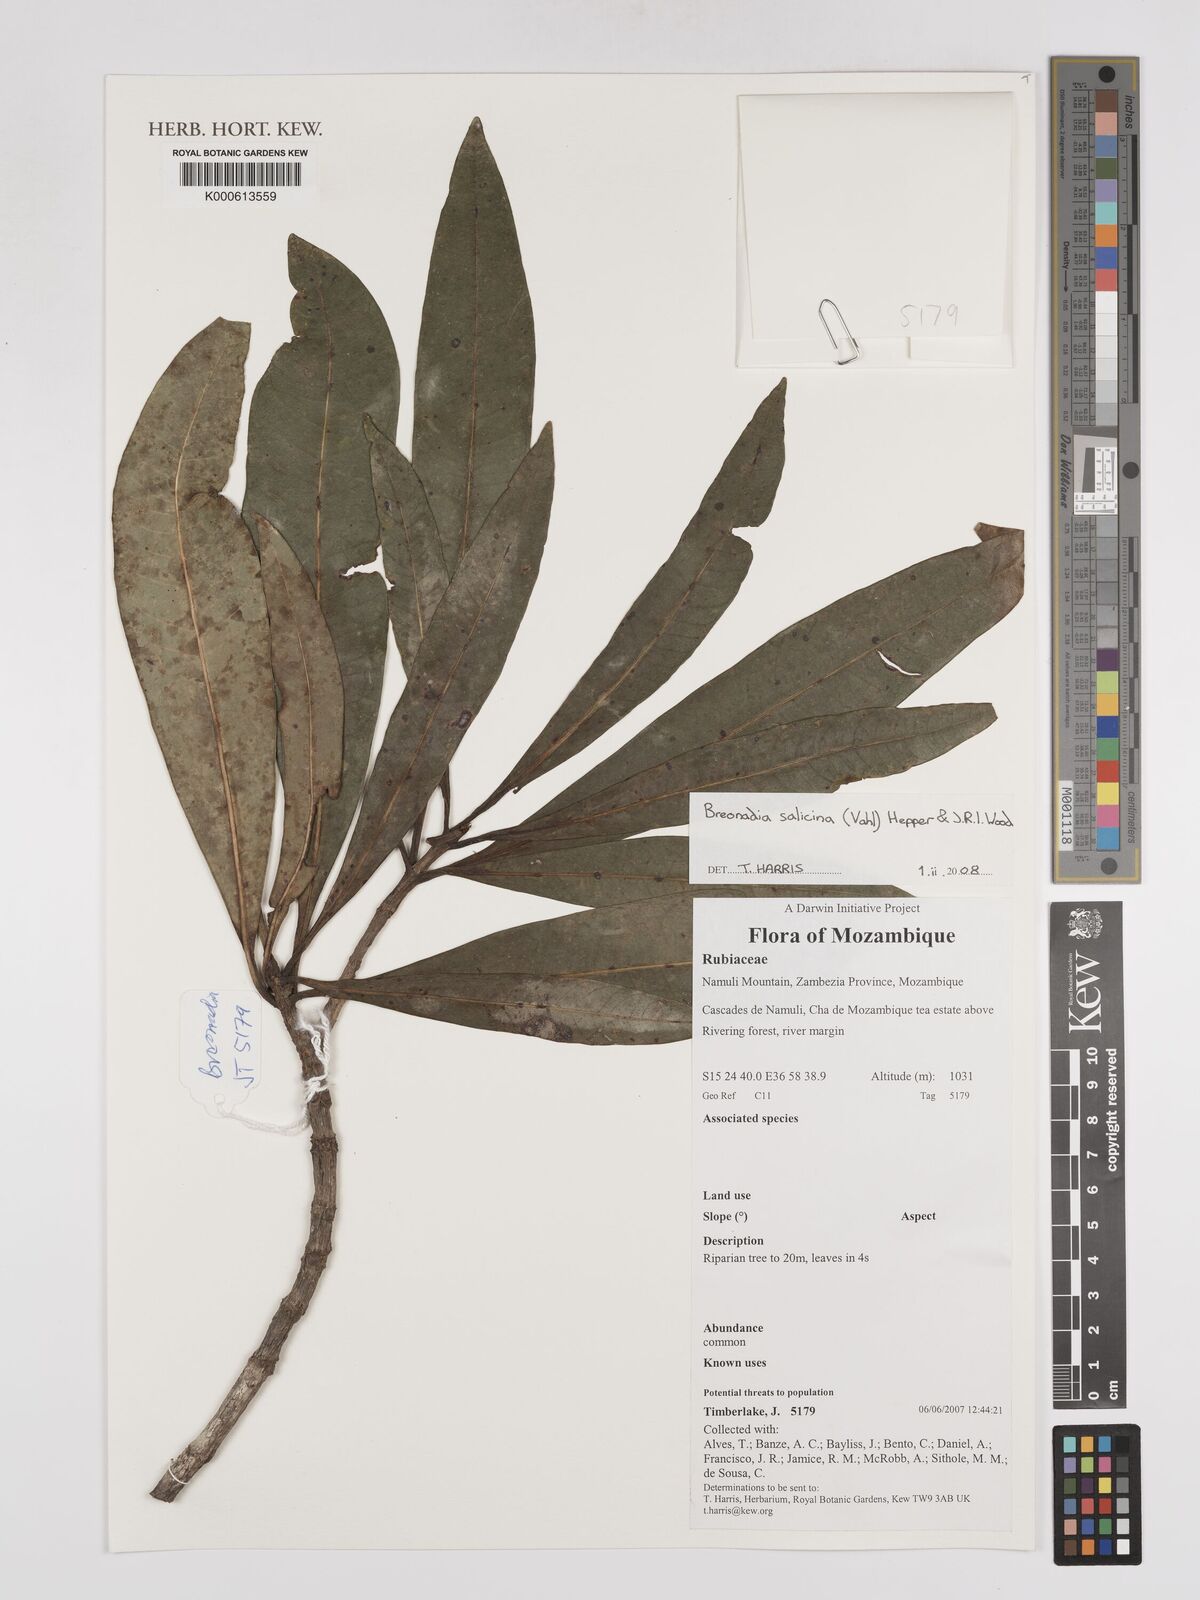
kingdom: Plantae
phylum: Tracheophyta
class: Magnoliopsida
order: Gentianales
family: Rubiaceae
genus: Breonadia
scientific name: Breonadia salicina
